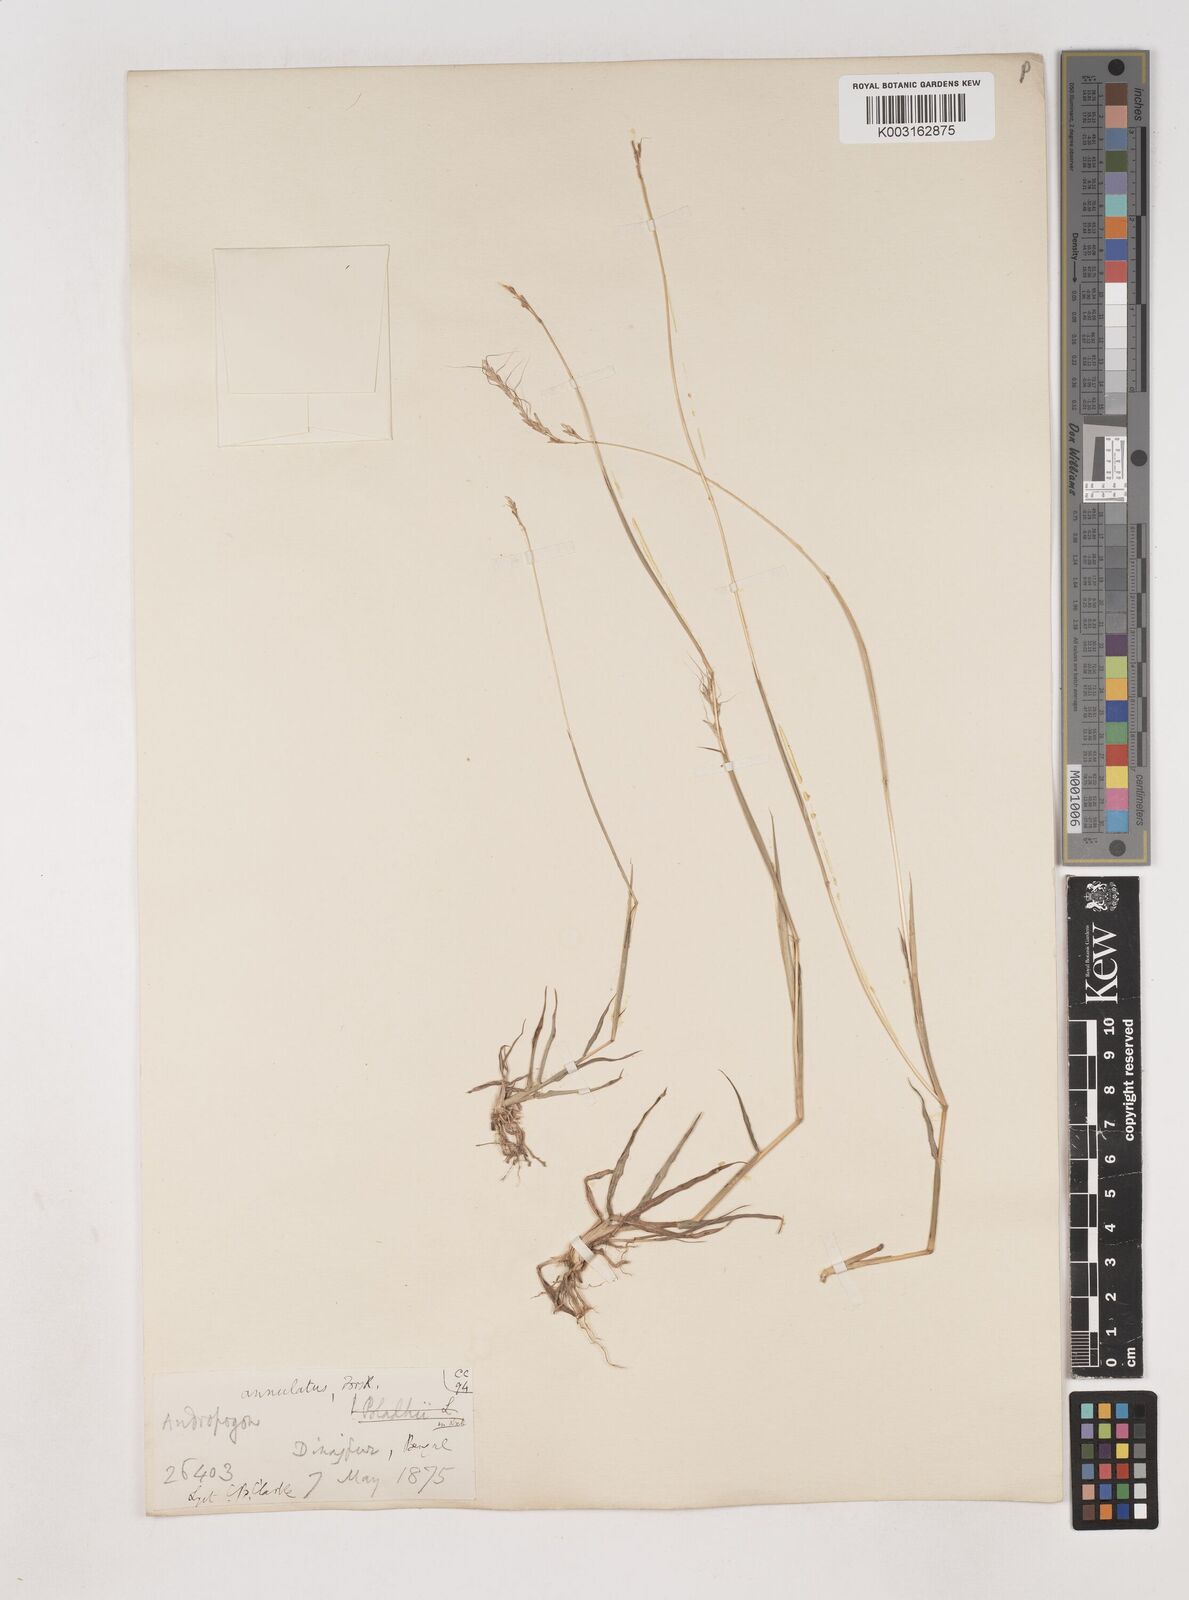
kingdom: Plantae
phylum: Tracheophyta
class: Liliopsida
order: Poales
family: Poaceae
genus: Dichanthium
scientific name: Dichanthium annulatum
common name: Kleberg's bluestem
